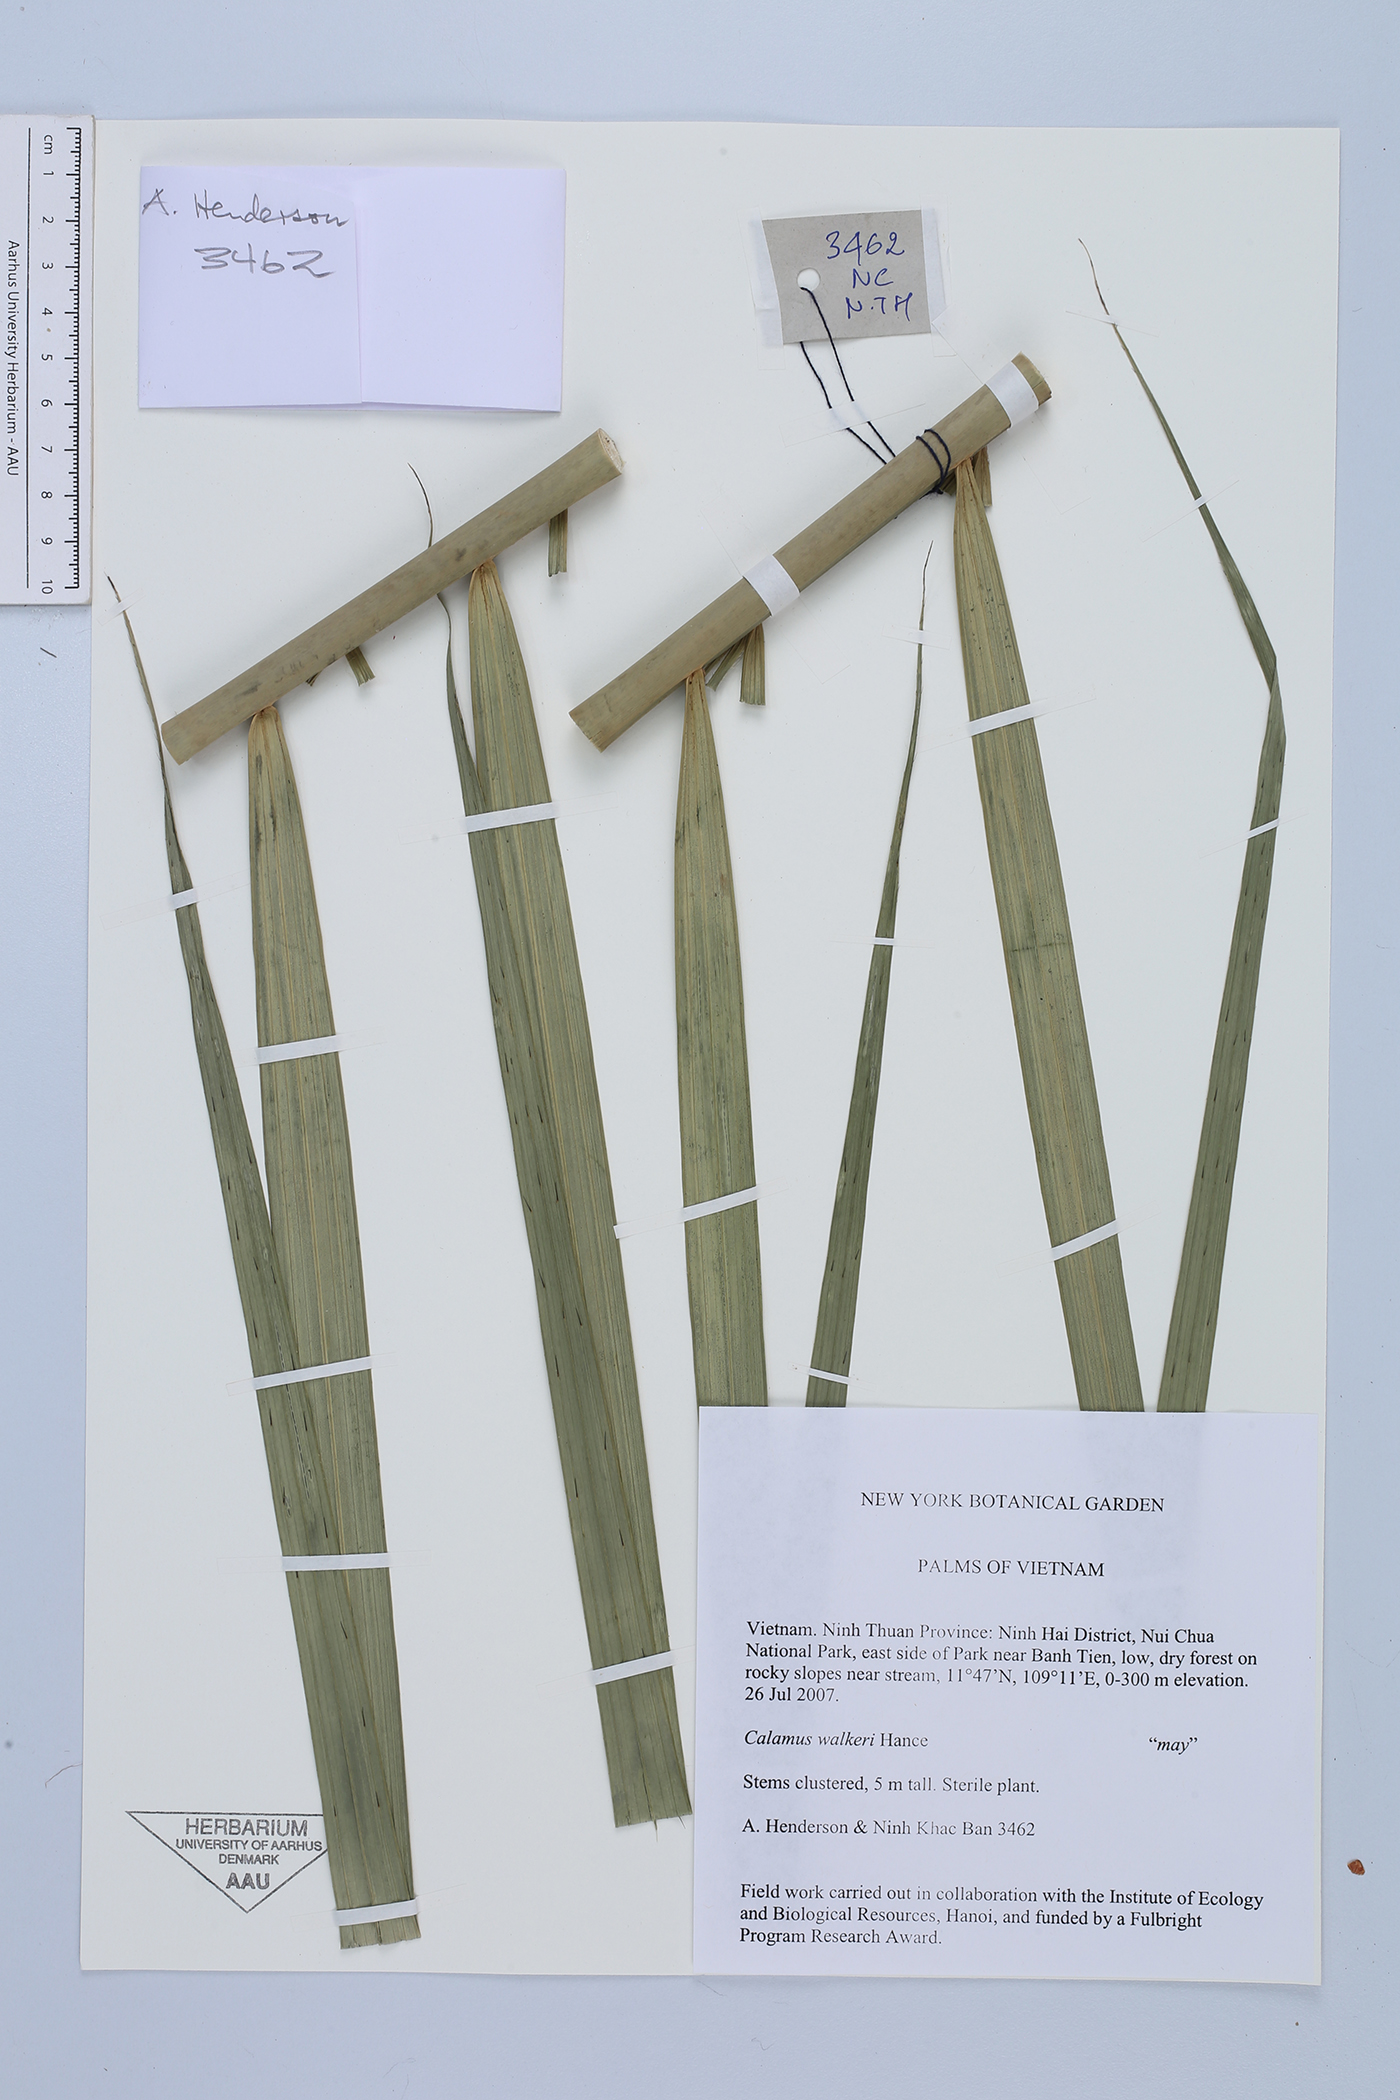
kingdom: Plantae
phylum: Tracheophyta
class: Liliopsida
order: Arecales
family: Arecaceae
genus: Calamus
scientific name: Calamus walkeri
